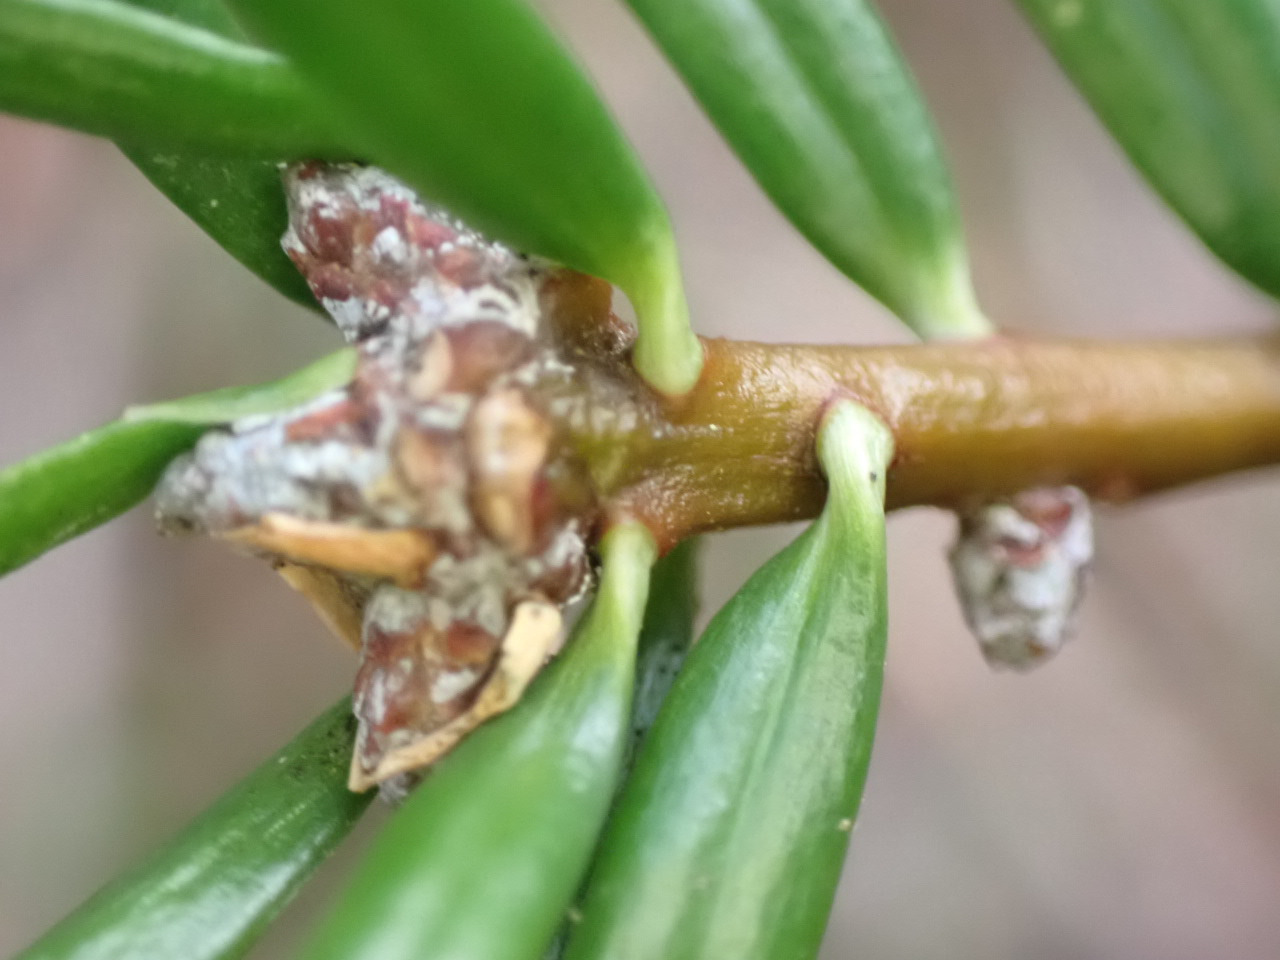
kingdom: Plantae
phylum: Tracheophyta
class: Pinopsida
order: Pinales
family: Pinaceae
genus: Abies
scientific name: Abies grandis
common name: Kæmpegran
